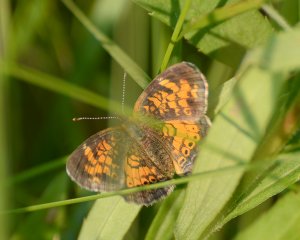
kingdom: Animalia
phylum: Arthropoda
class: Insecta
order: Lepidoptera
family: Nymphalidae
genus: Phyciodes
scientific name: Phyciodes tharos
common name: Northern Crescent
